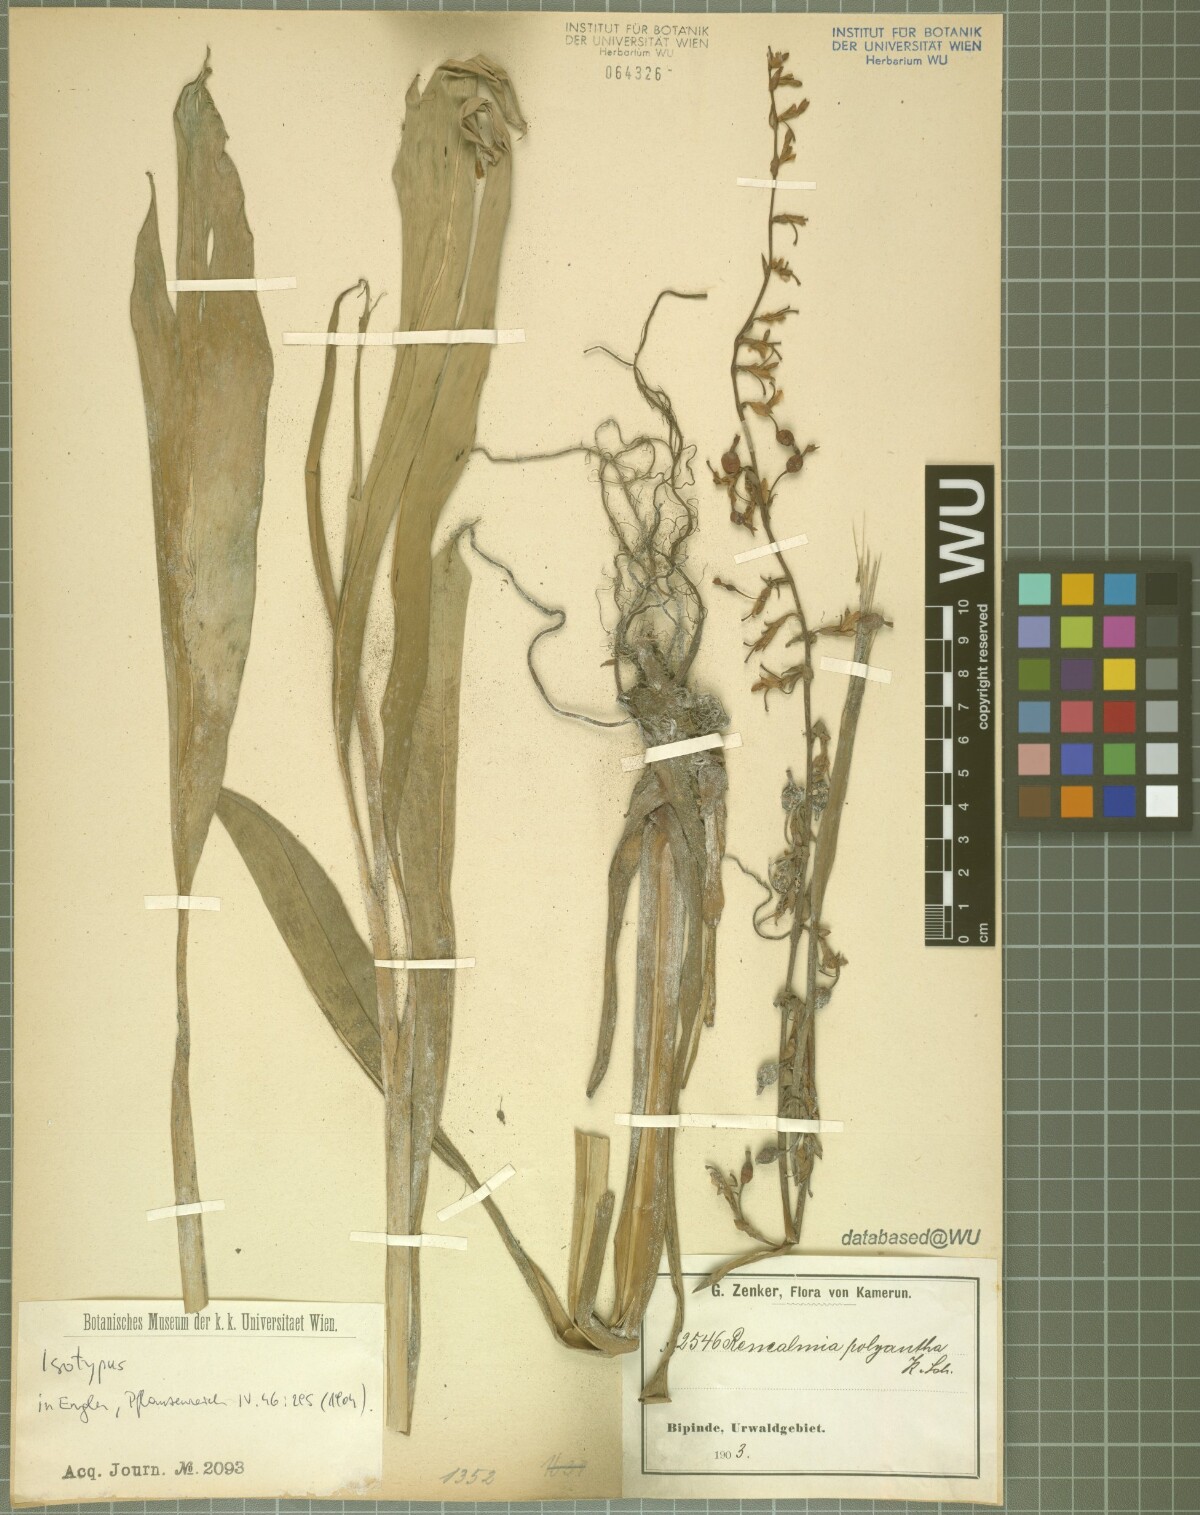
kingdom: Plantae
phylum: Tracheophyta
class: Liliopsida
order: Zingiberales
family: Zingiberaceae
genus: Renealmia
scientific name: Renealmia polyantha
